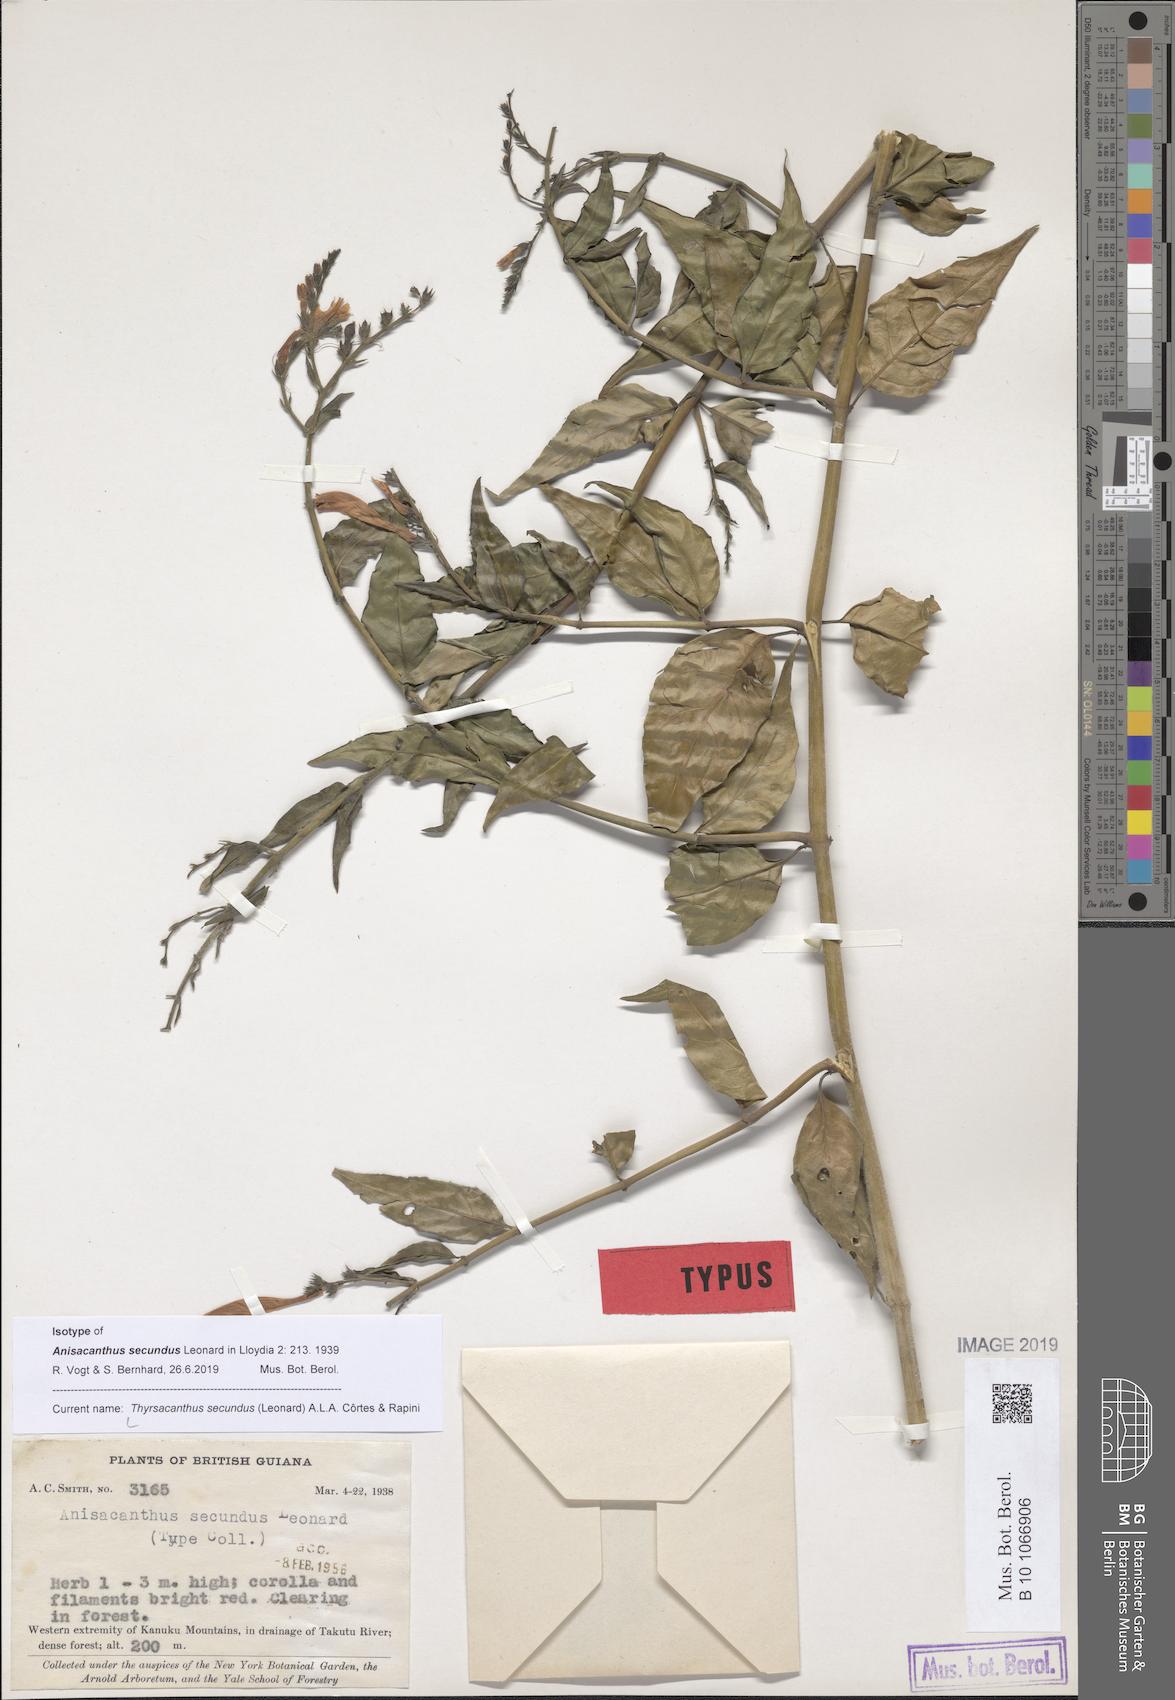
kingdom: Plantae
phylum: Tracheophyta
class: Magnoliopsida
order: Lamiales
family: Acanthaceae
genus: Thyrsacanthus
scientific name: Thyrsacanthus secundus
